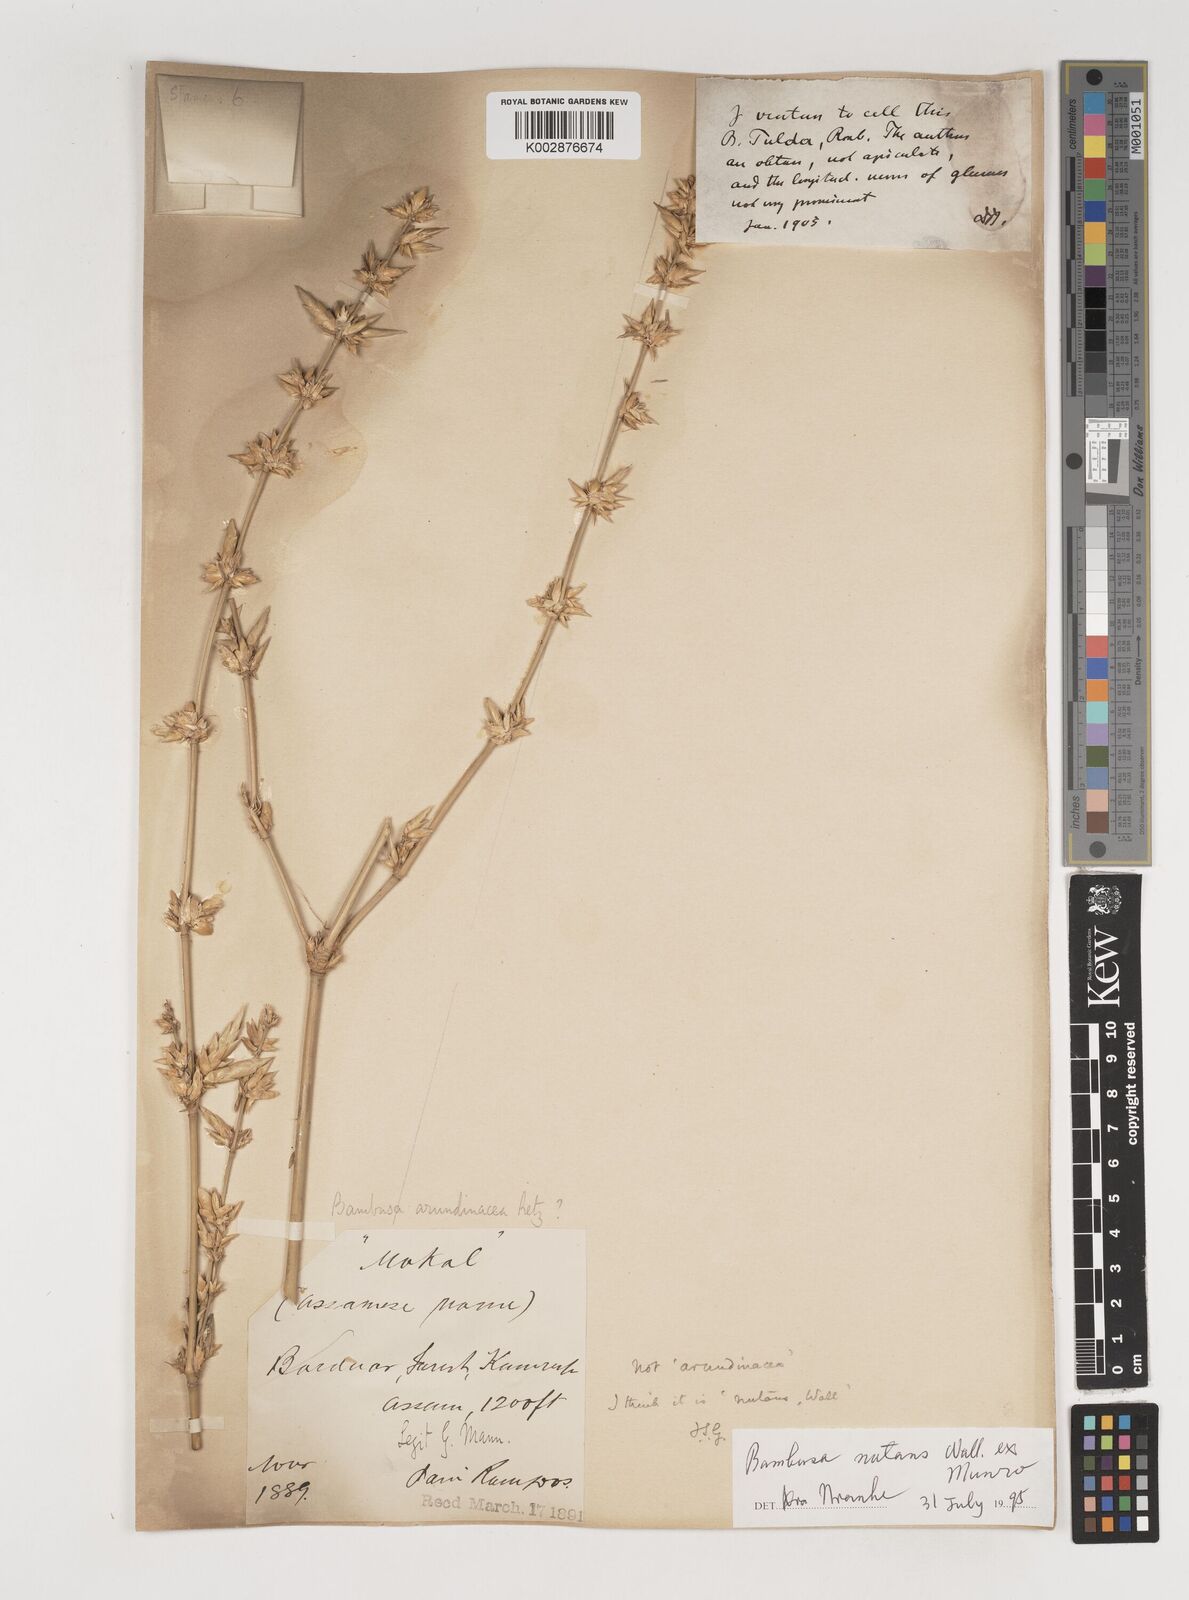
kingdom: Plantae
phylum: Tracheophyta
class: Liliopsida
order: Poales
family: Poaceae
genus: Bambusa
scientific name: Bambusa nutans
